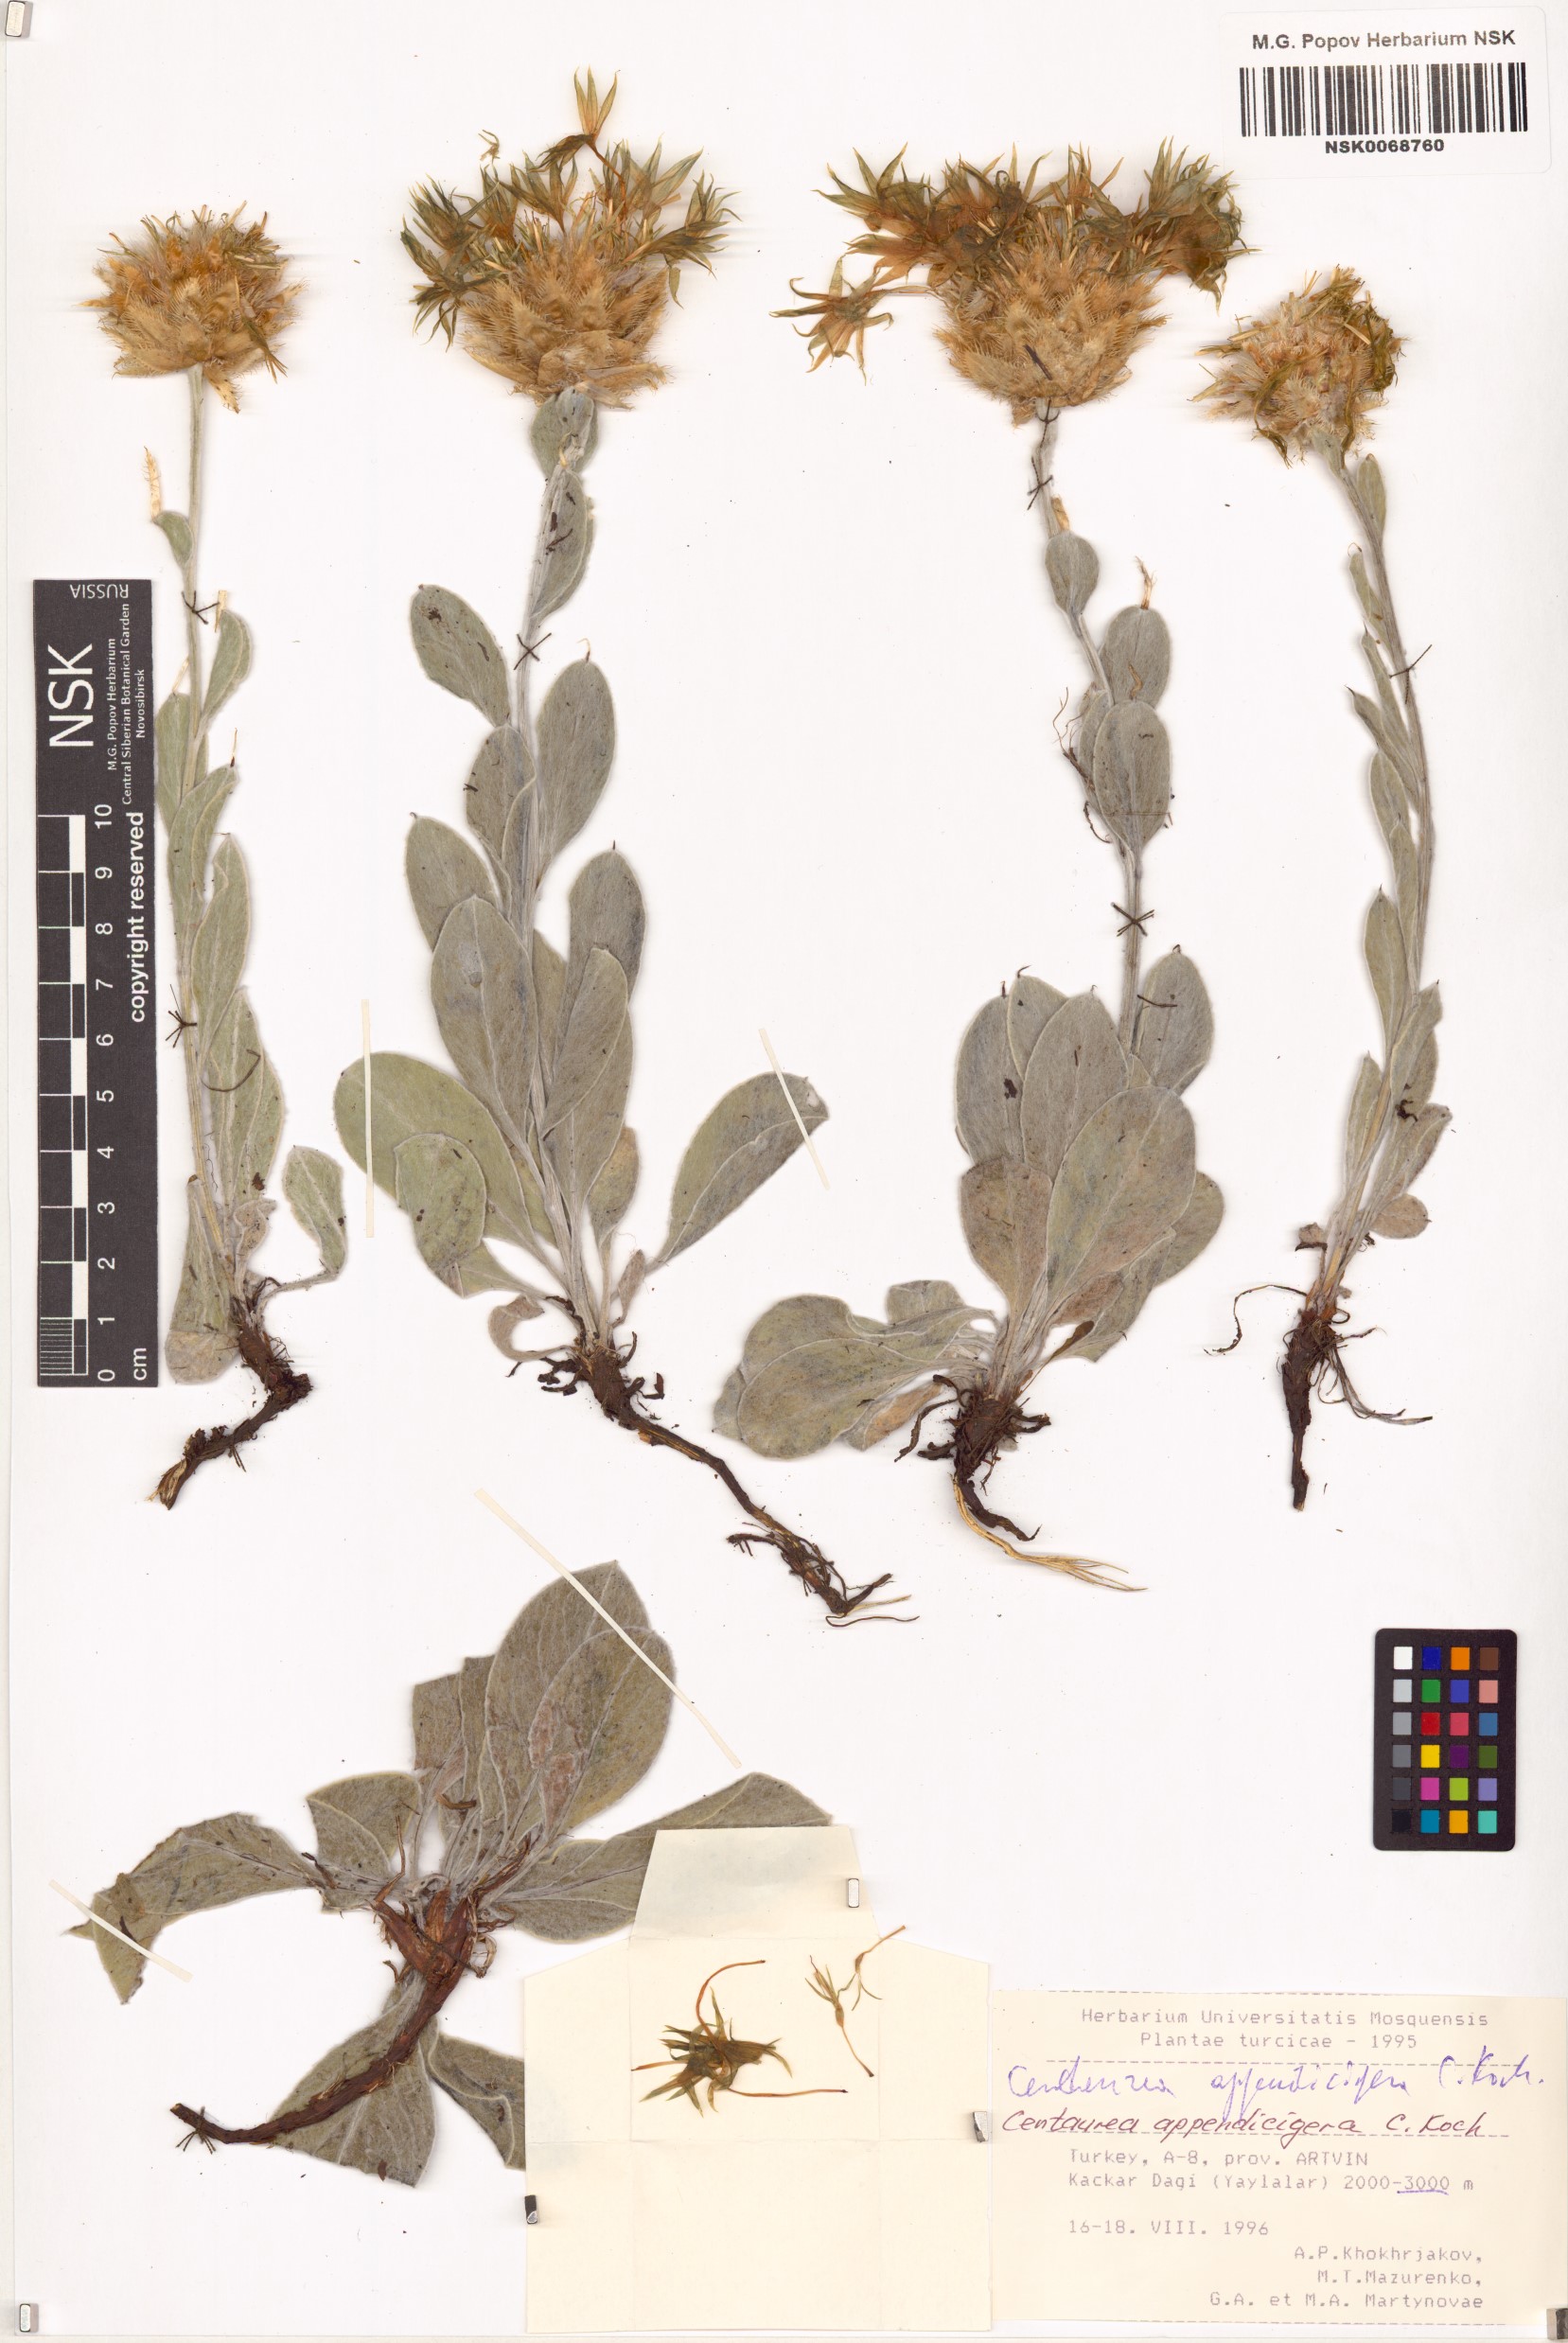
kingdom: Plantae
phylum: Tracheophyta
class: Magnoliopsida
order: Asterales
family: Asteraceae
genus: Psephellus
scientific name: Psephellus appendicigerus
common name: Appendage-bearing centaury
